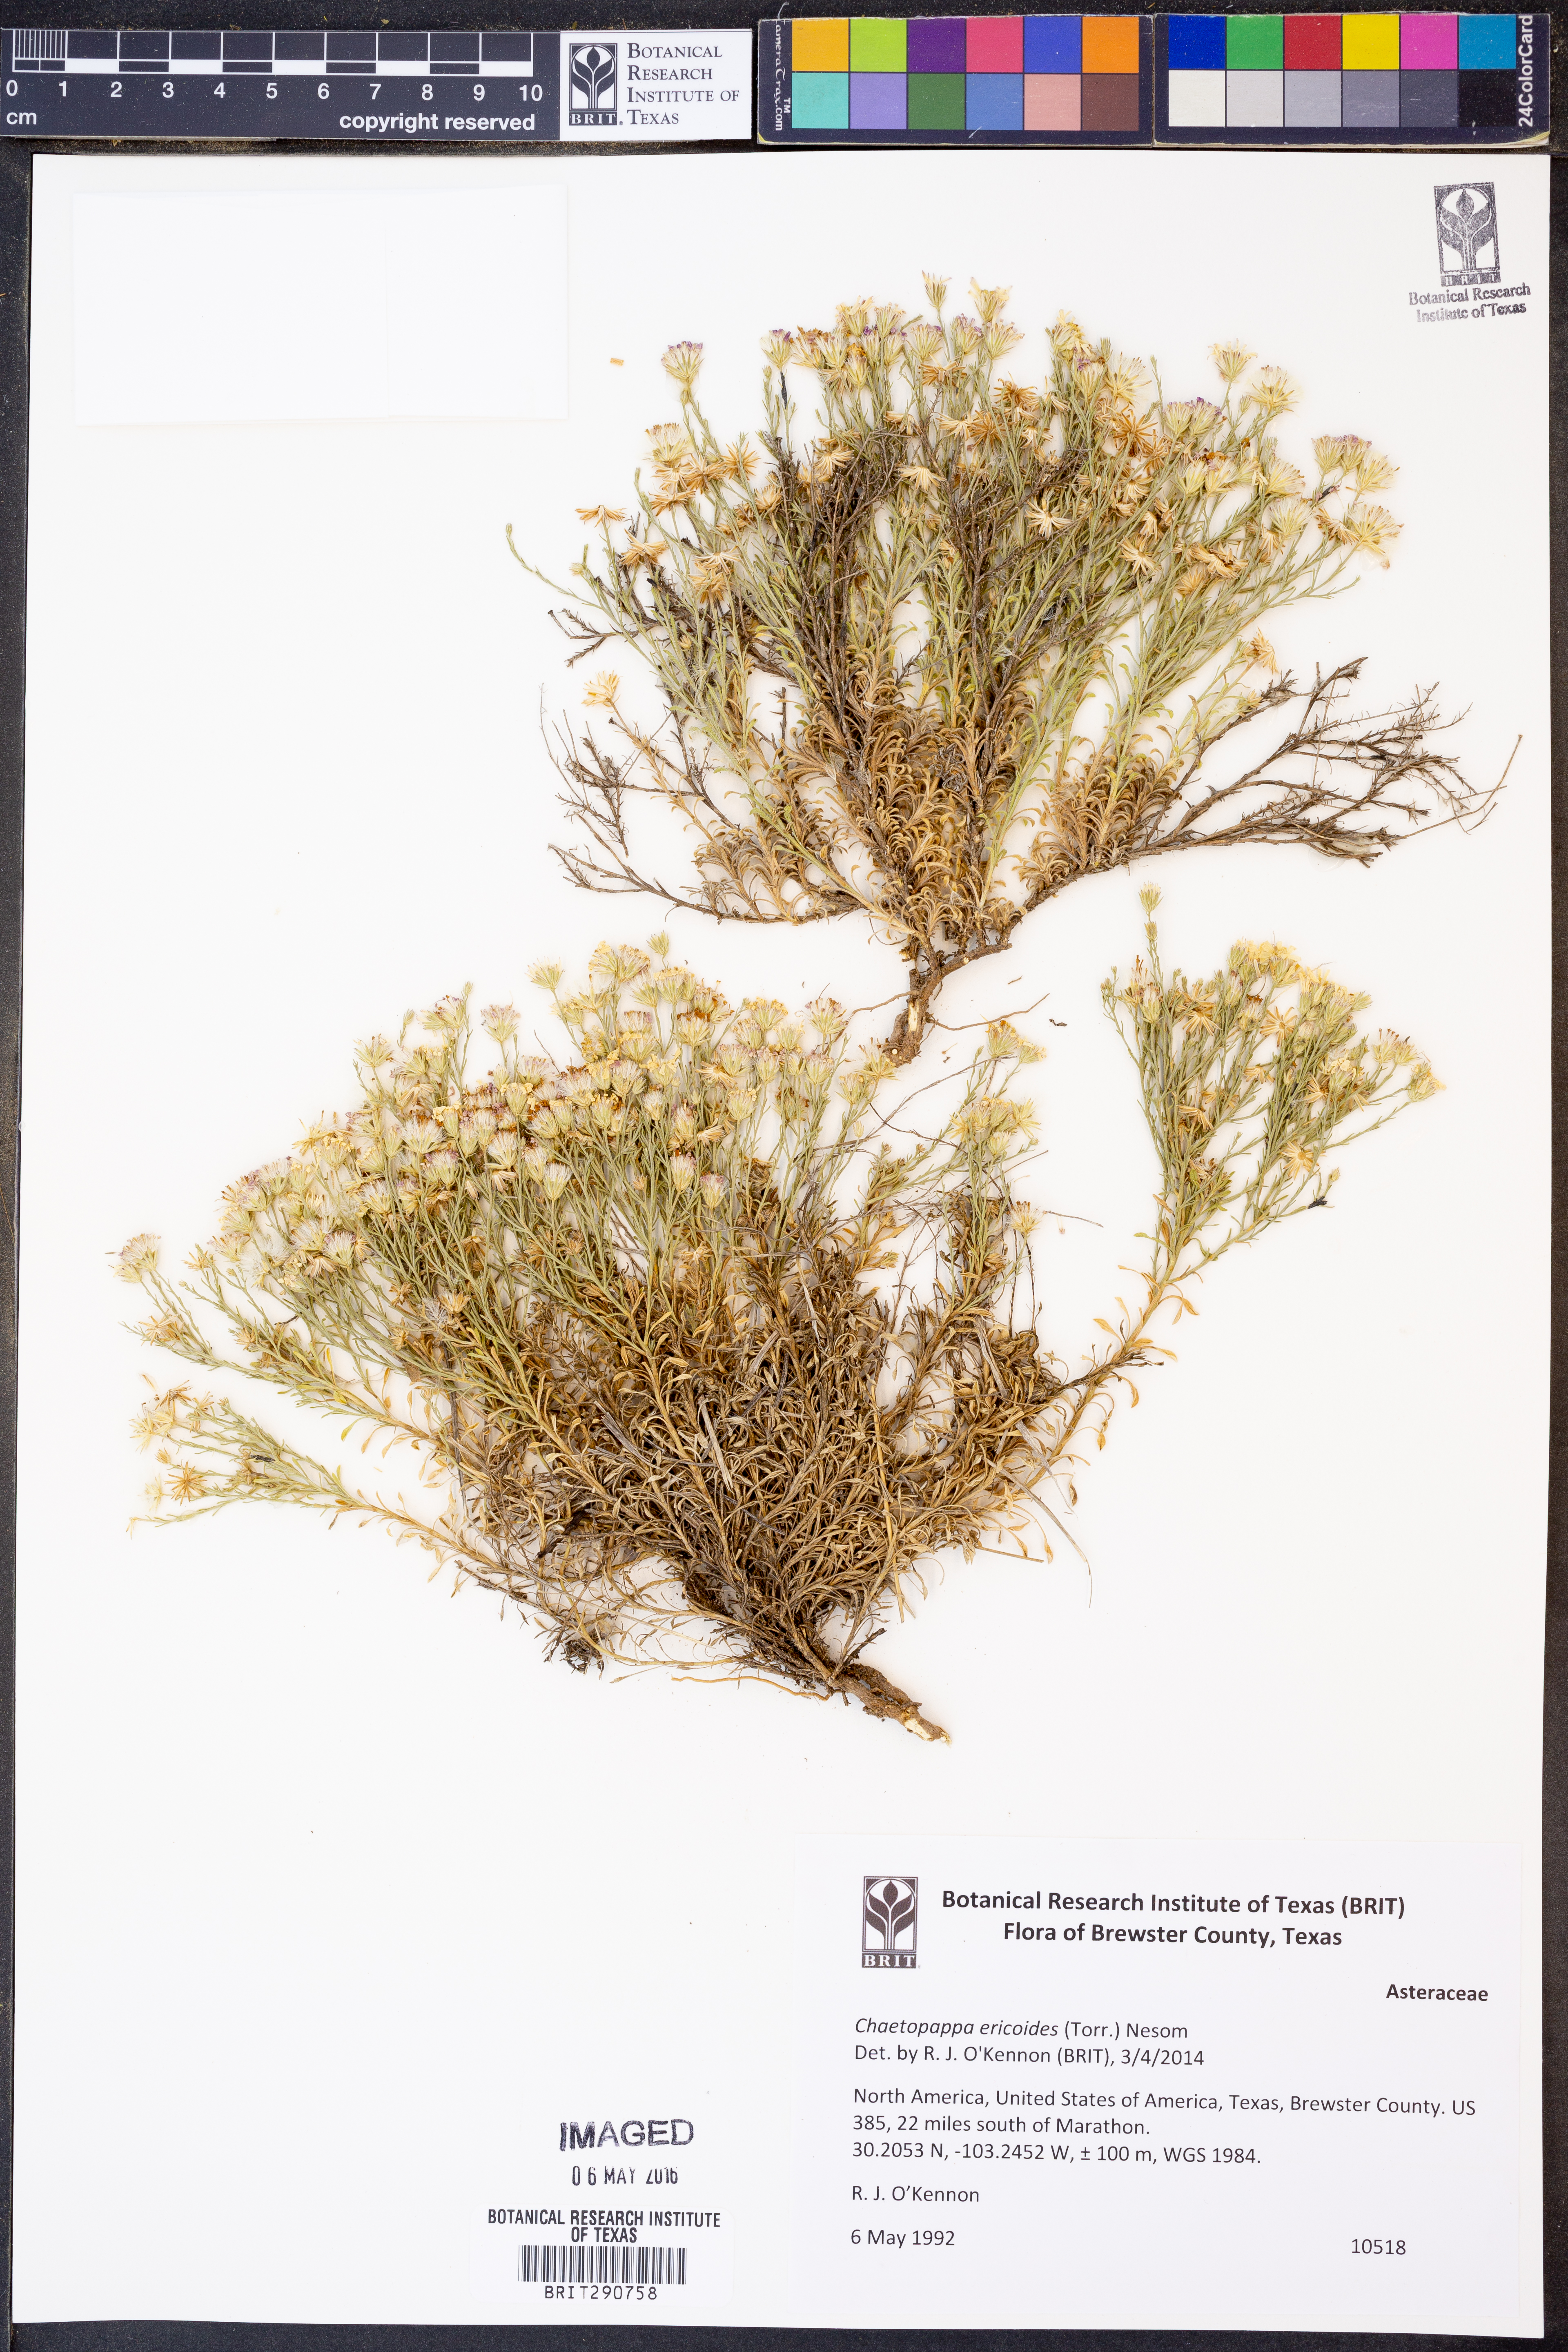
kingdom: Plantae
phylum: Tracheophyta
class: Magnoliopsida
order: Asterales
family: Asteraceae
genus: Chaetopappa
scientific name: Chaetopappa ericoides
